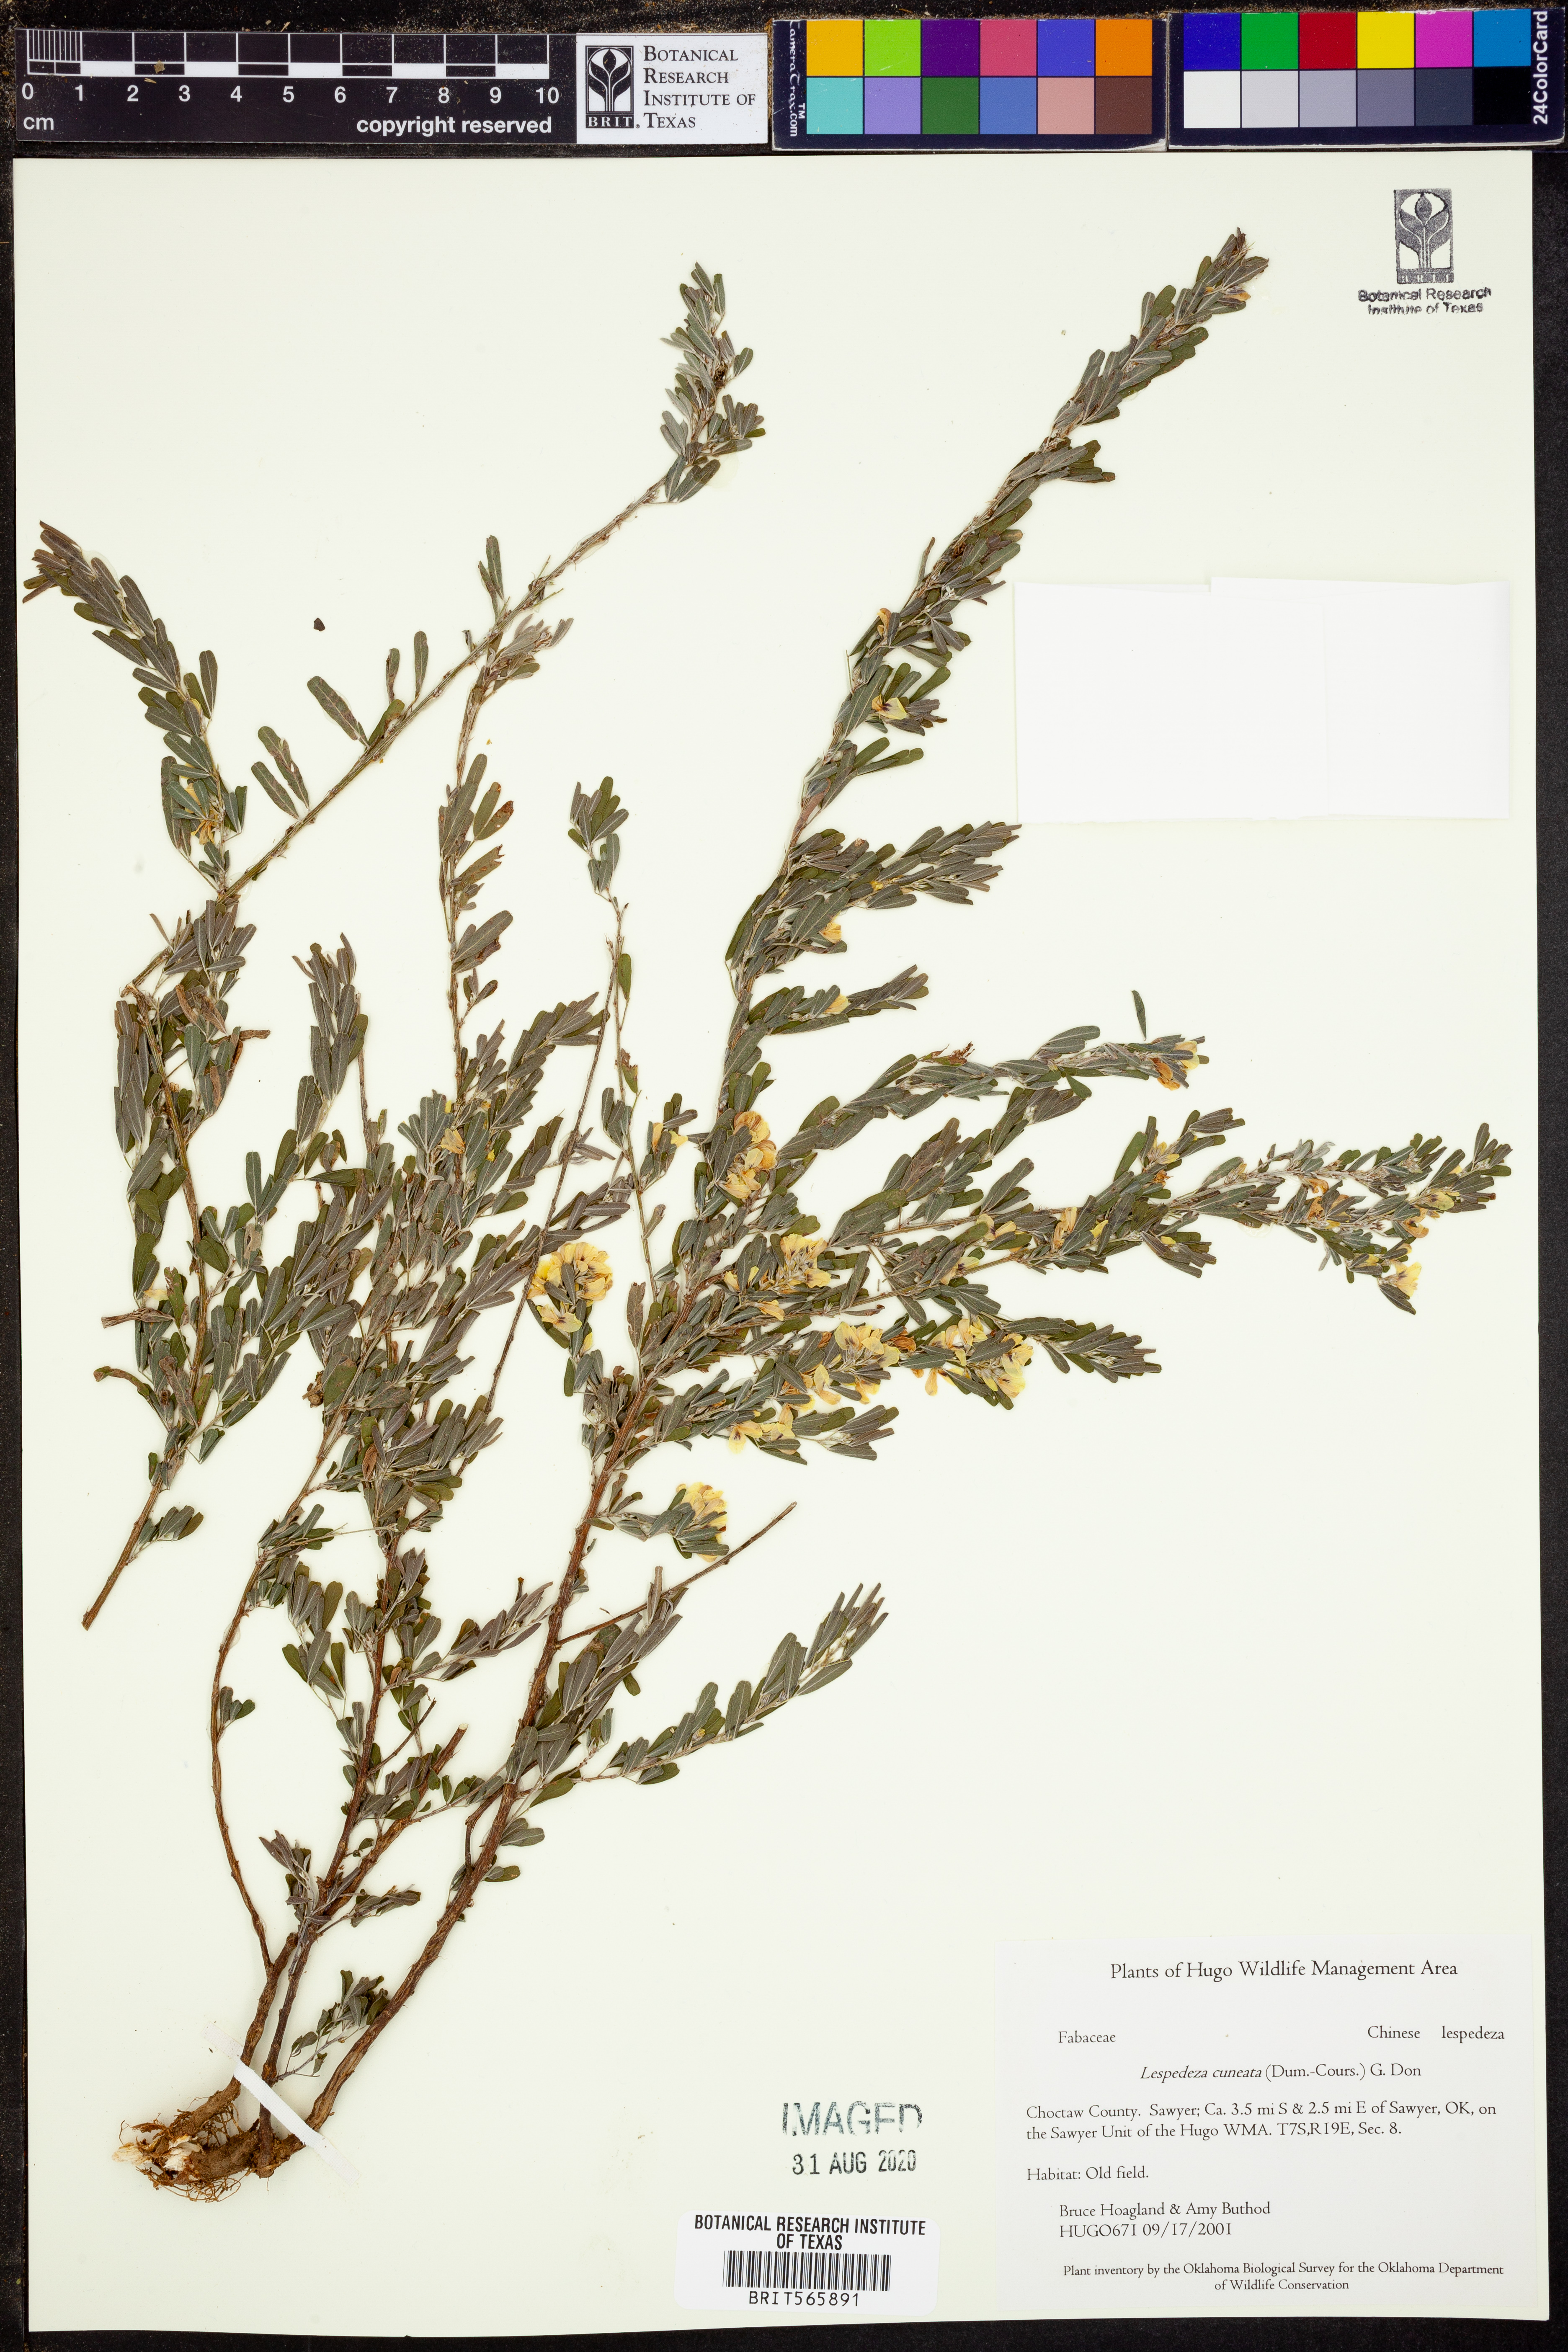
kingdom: Plantae
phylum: Tracheophyta
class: Magnoliopsida
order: Fabales
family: Fabaceae
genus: Lespedeza
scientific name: Lespedeza cuneata
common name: Chinese bush-clover
